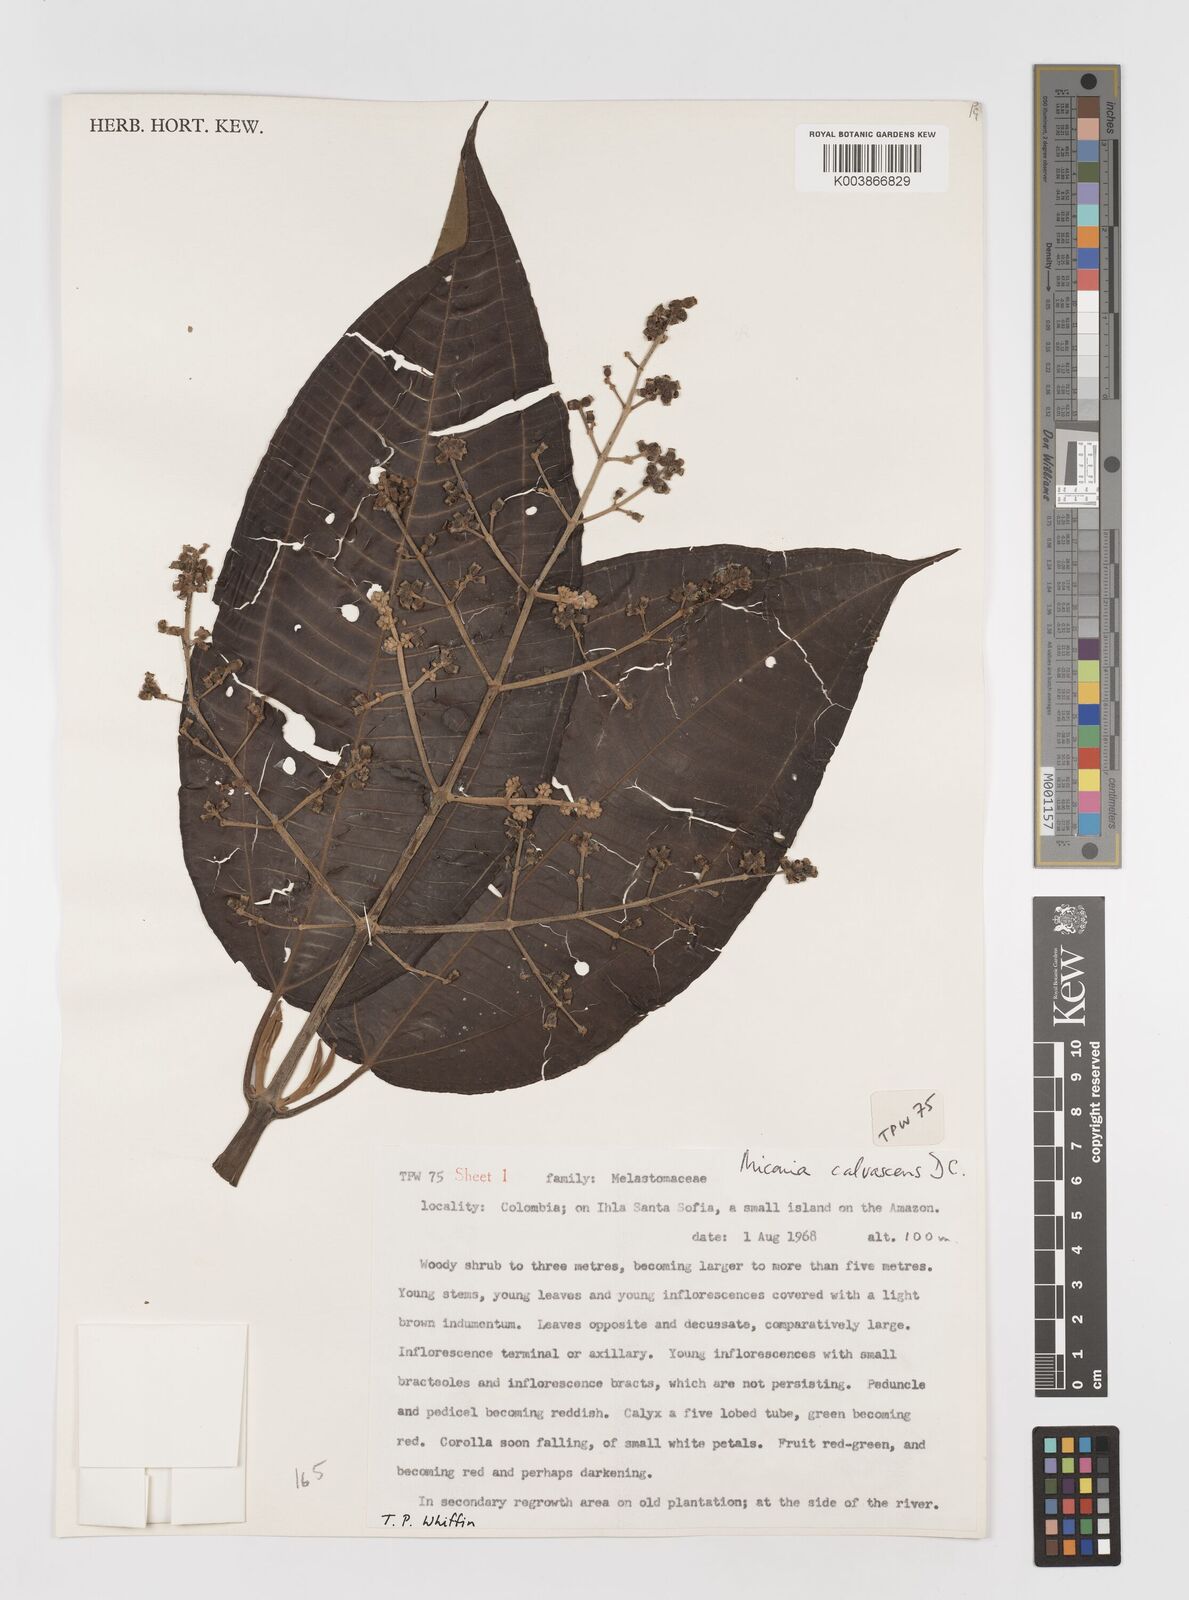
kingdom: Plantae
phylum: Tracheophyta
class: Magnoliopsida
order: Myrtales
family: Melastomataceae
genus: Miconia
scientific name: Miconia calvescens
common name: Purple plague
